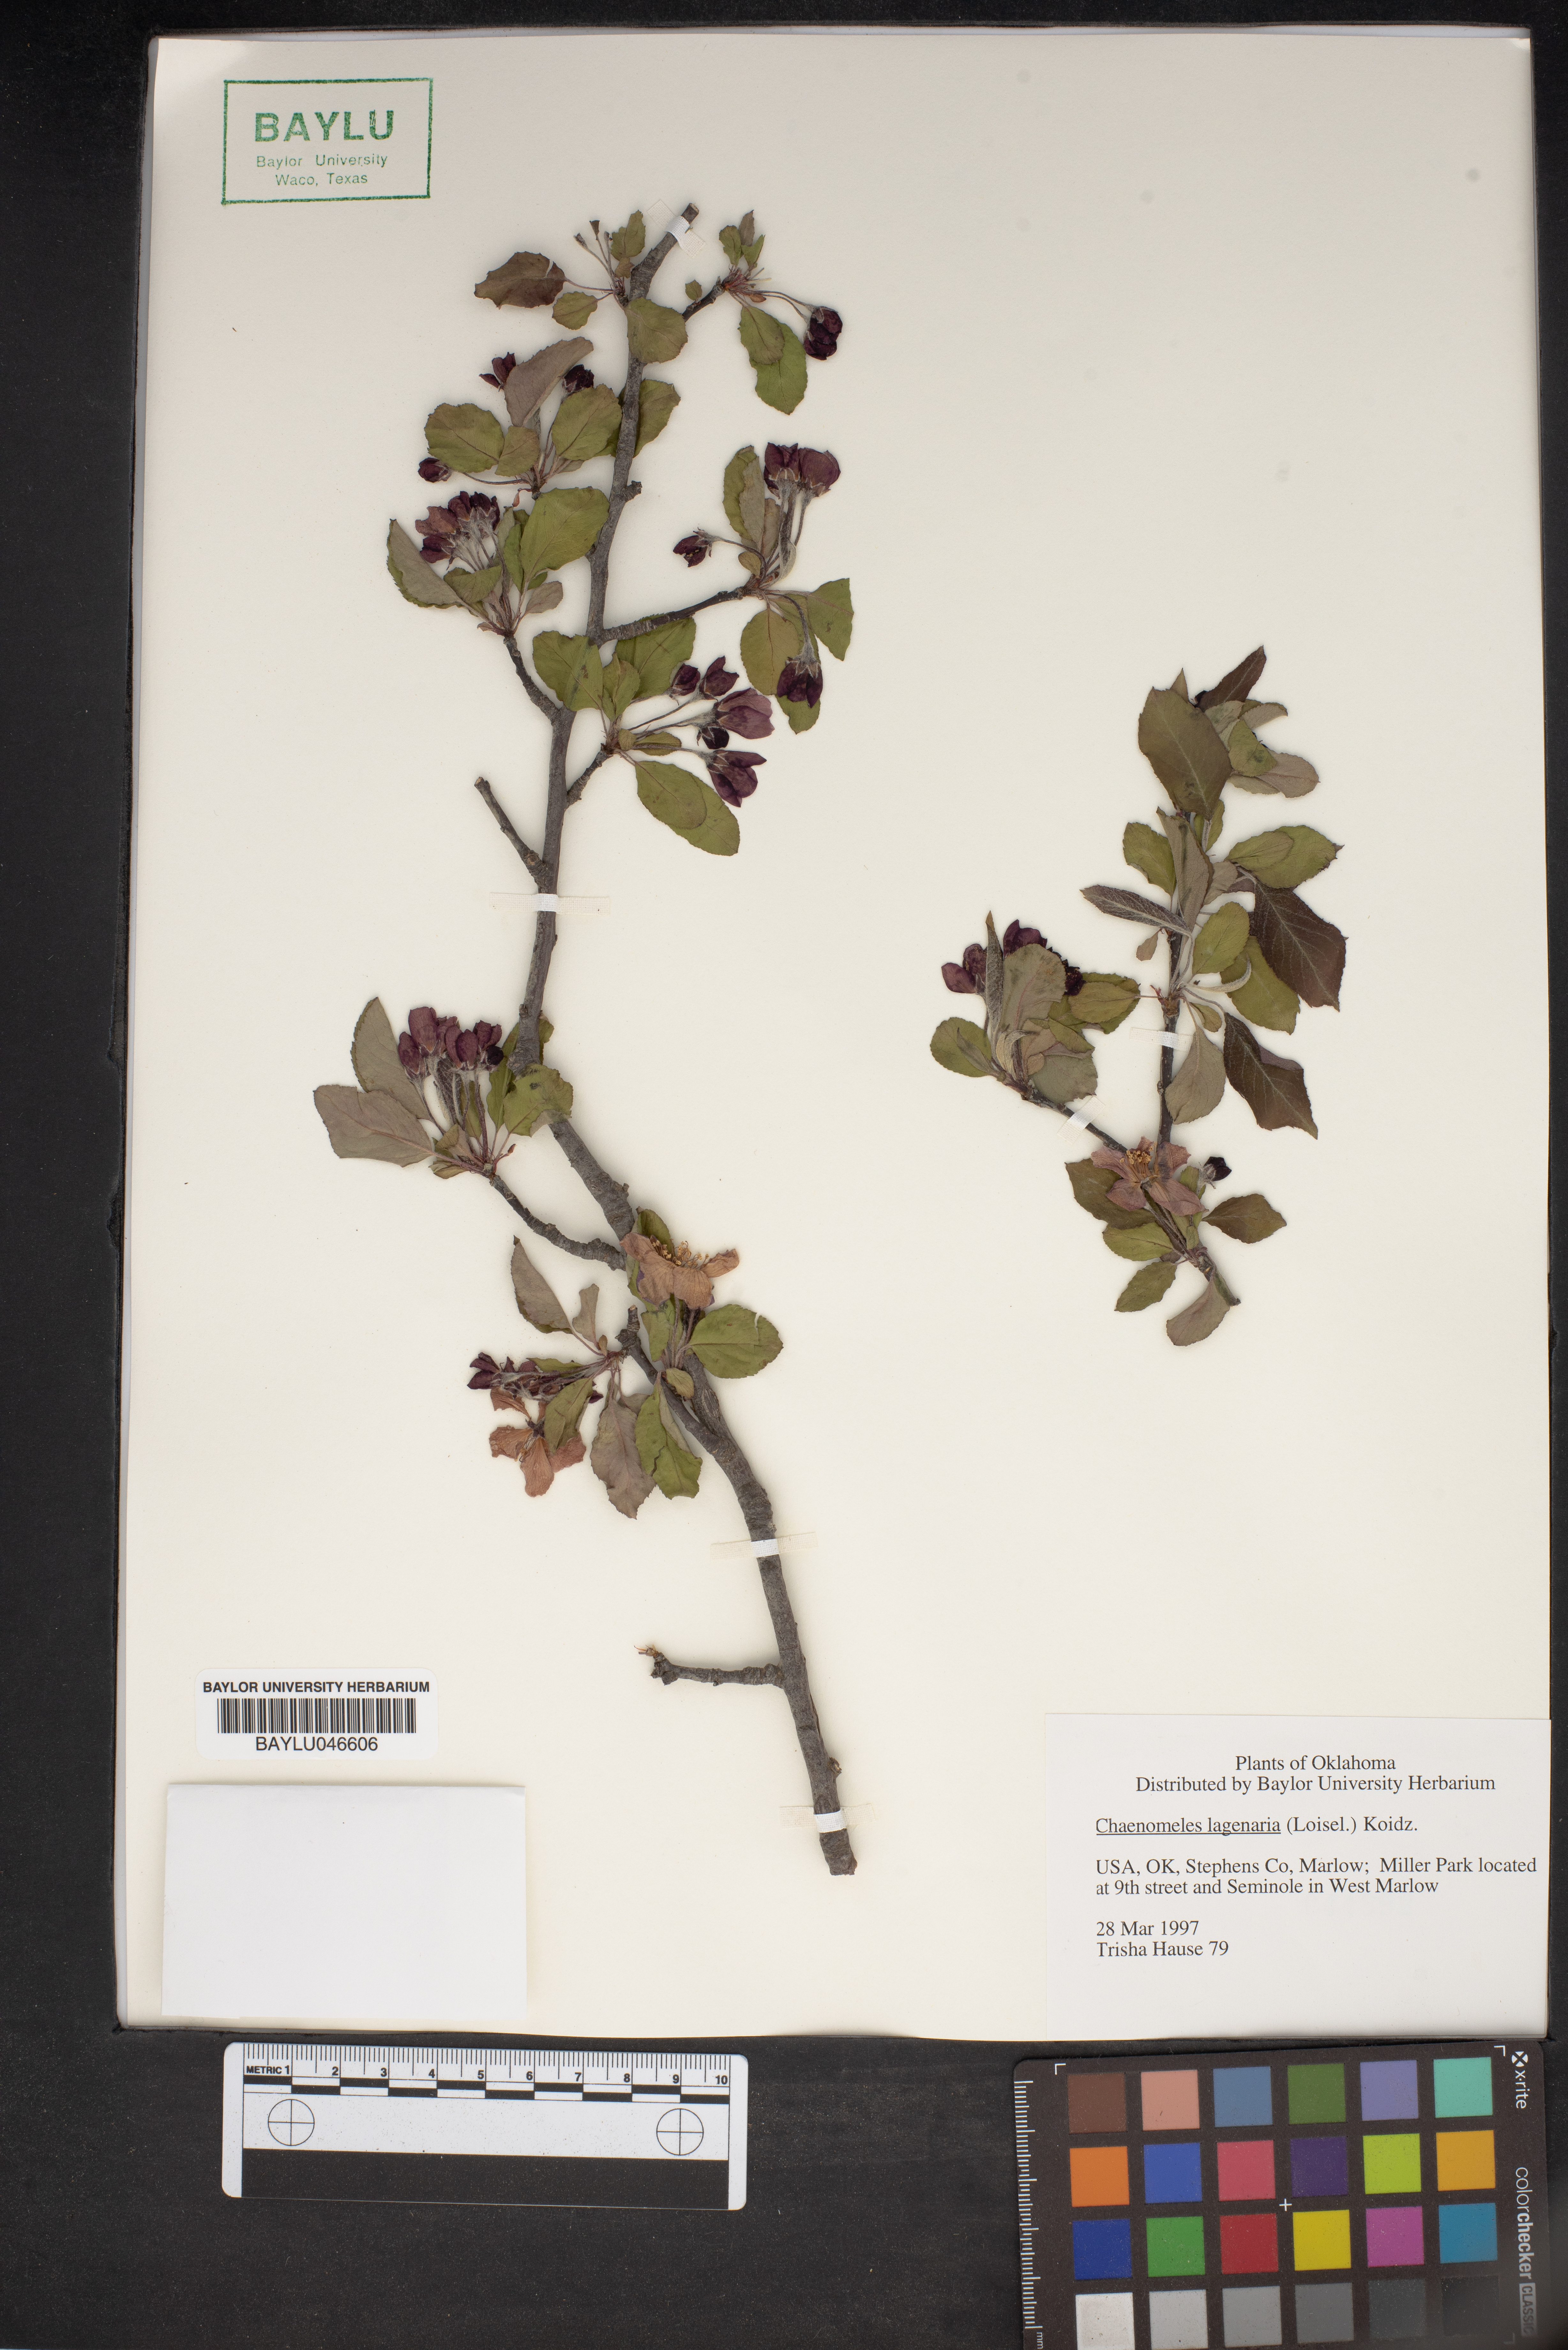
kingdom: Plantae
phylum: Tracheophyta
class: Magnoliopsida
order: Rosales
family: Rosaceae
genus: Chaenomeles
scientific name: Chaenomeles
